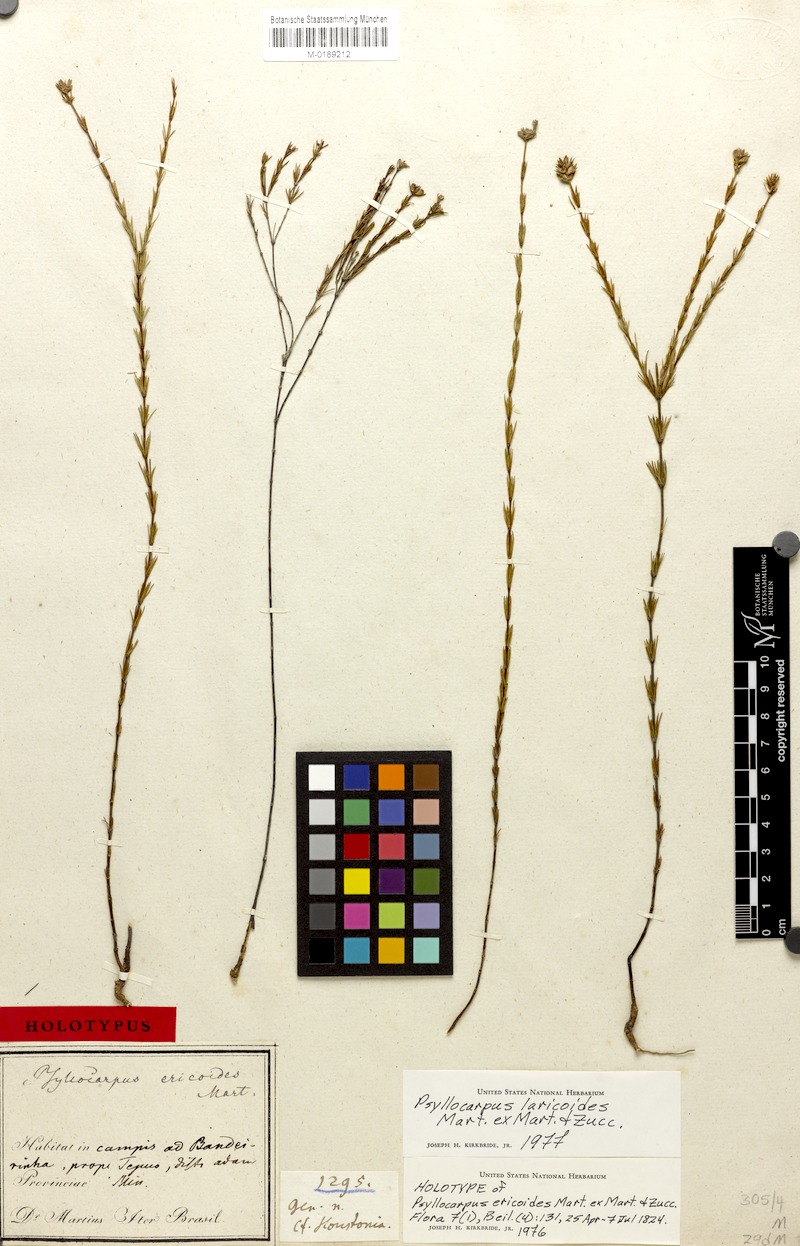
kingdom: Plantae
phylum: Tracheophyta
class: Magnoliopsida
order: Gentianales
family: Rubiaceae
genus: Psyllocarpus
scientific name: Psyllocarpus laricoides
